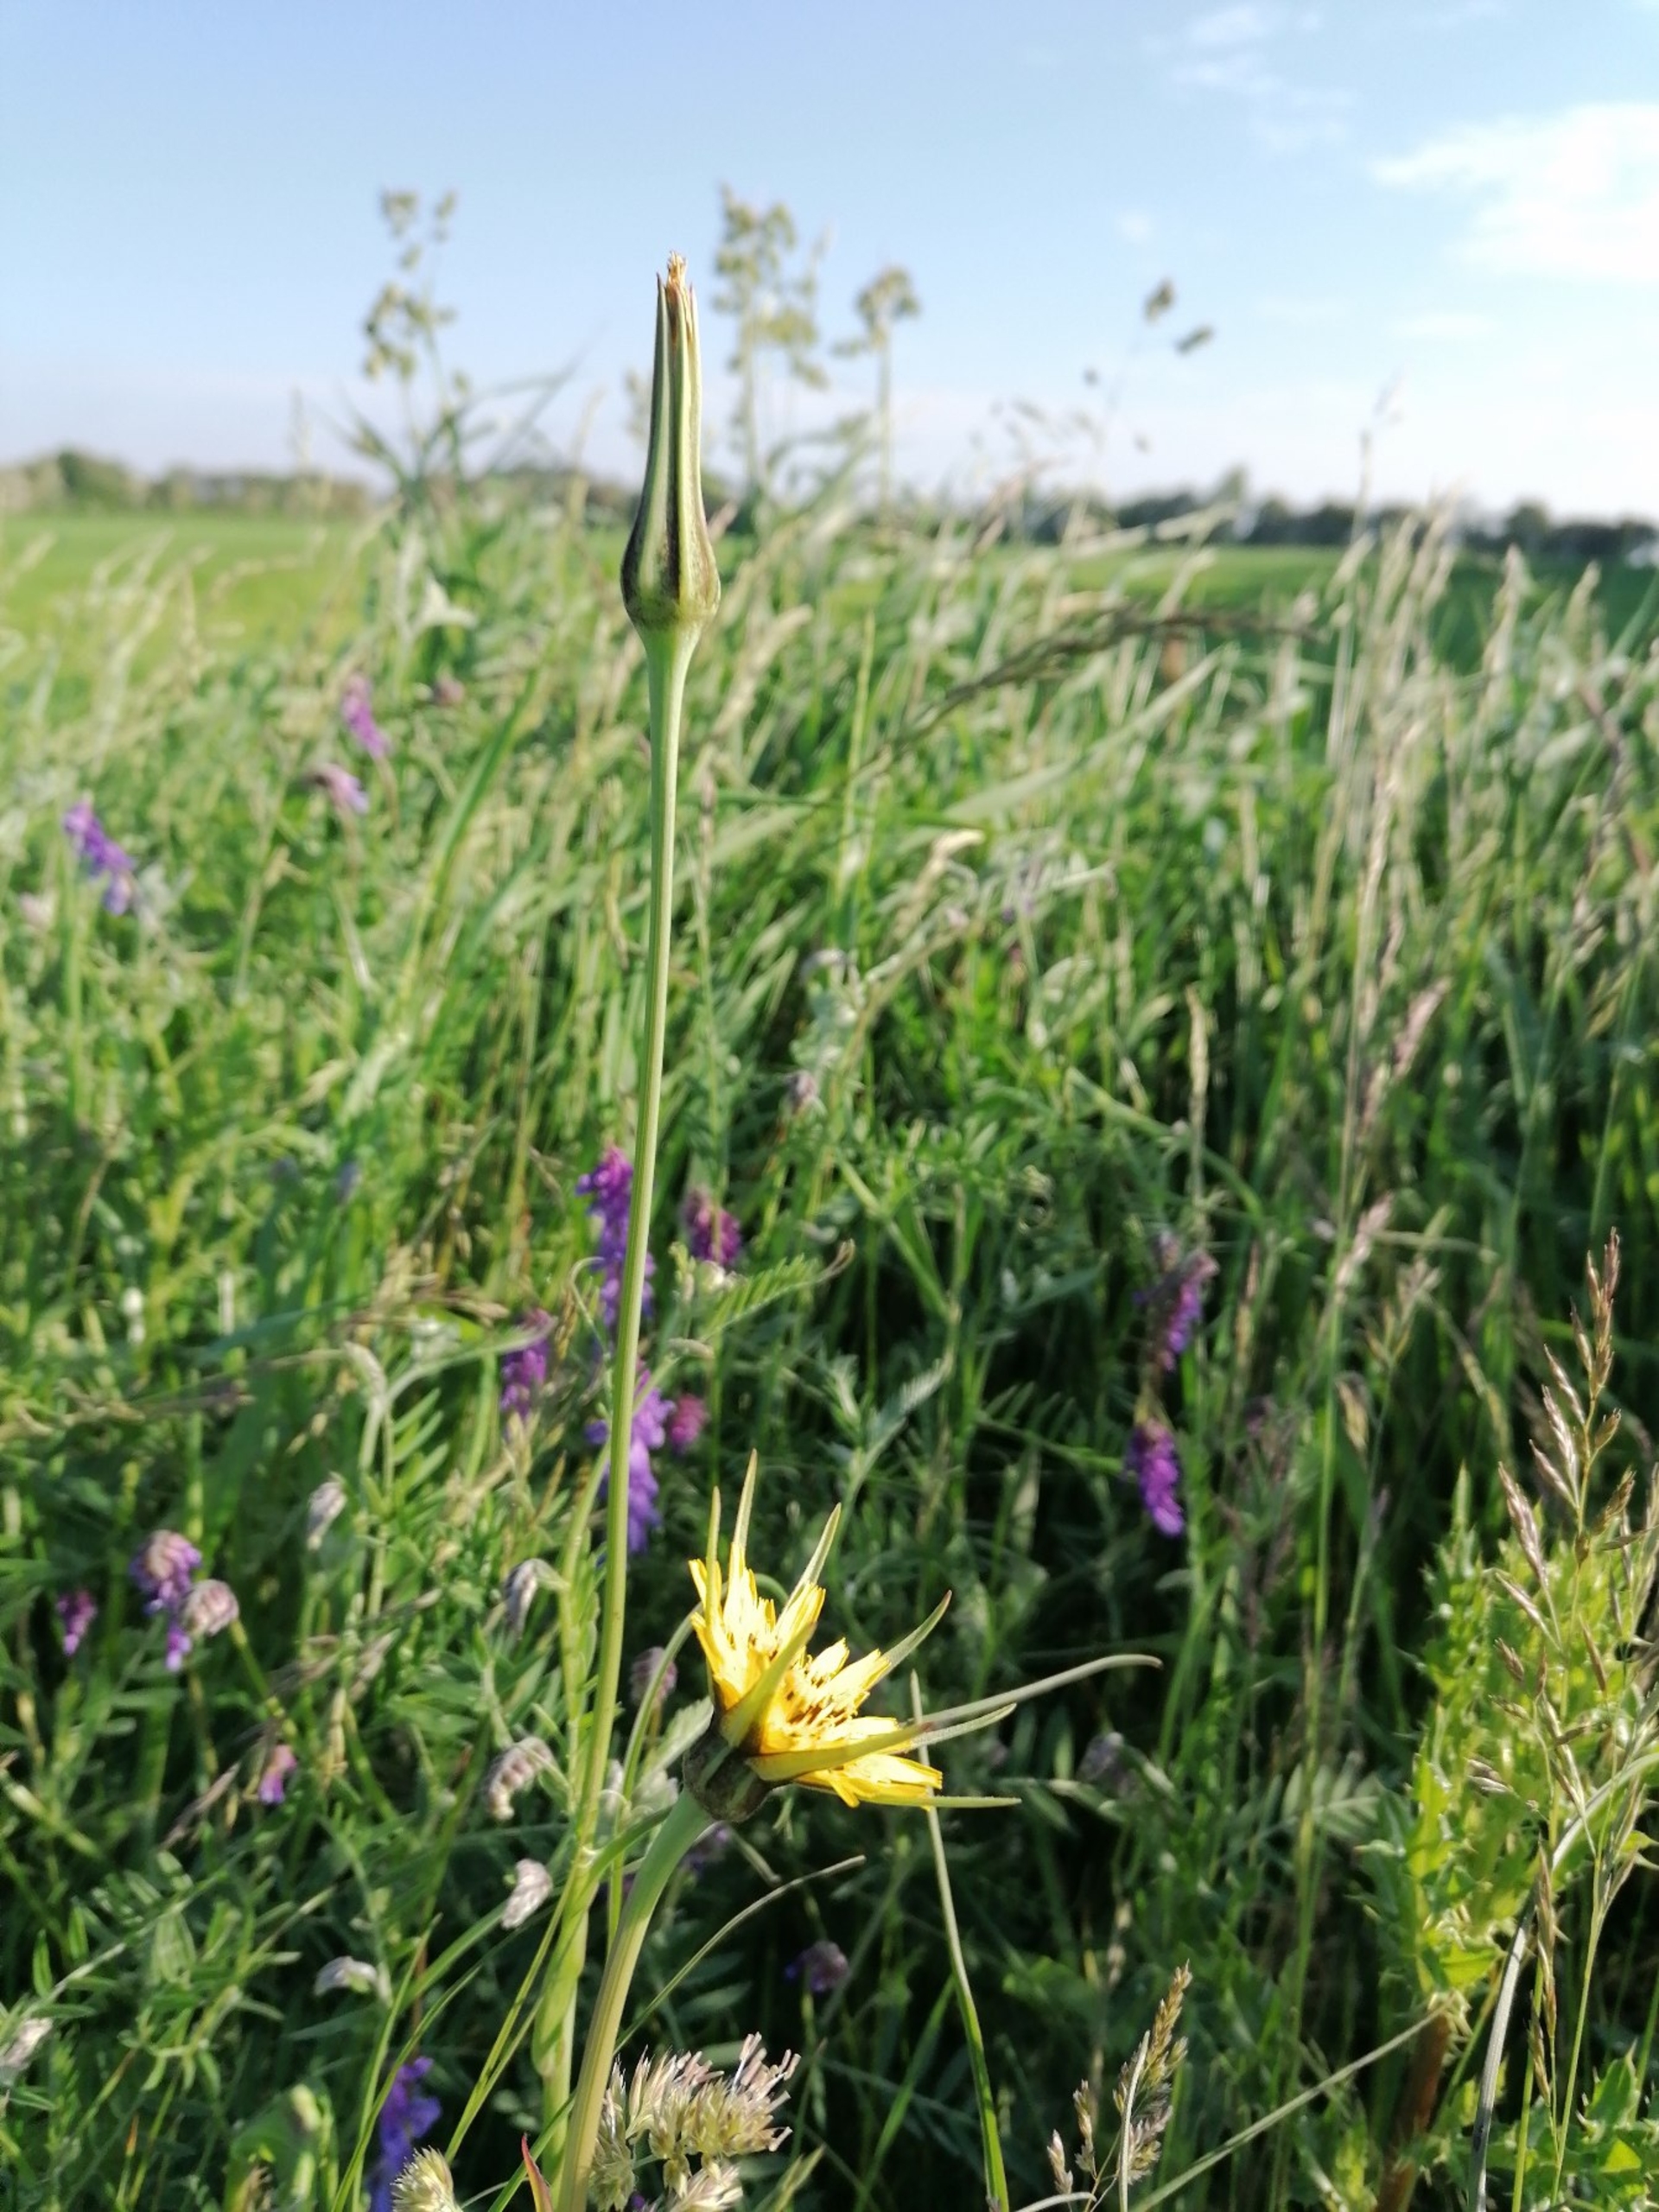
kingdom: Plantae
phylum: Tracheophyta
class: Magnoliopsida
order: Asterales
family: Asteraceae
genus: Tragopogon
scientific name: Tragopogon minor
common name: Småkronet gedeskæg
